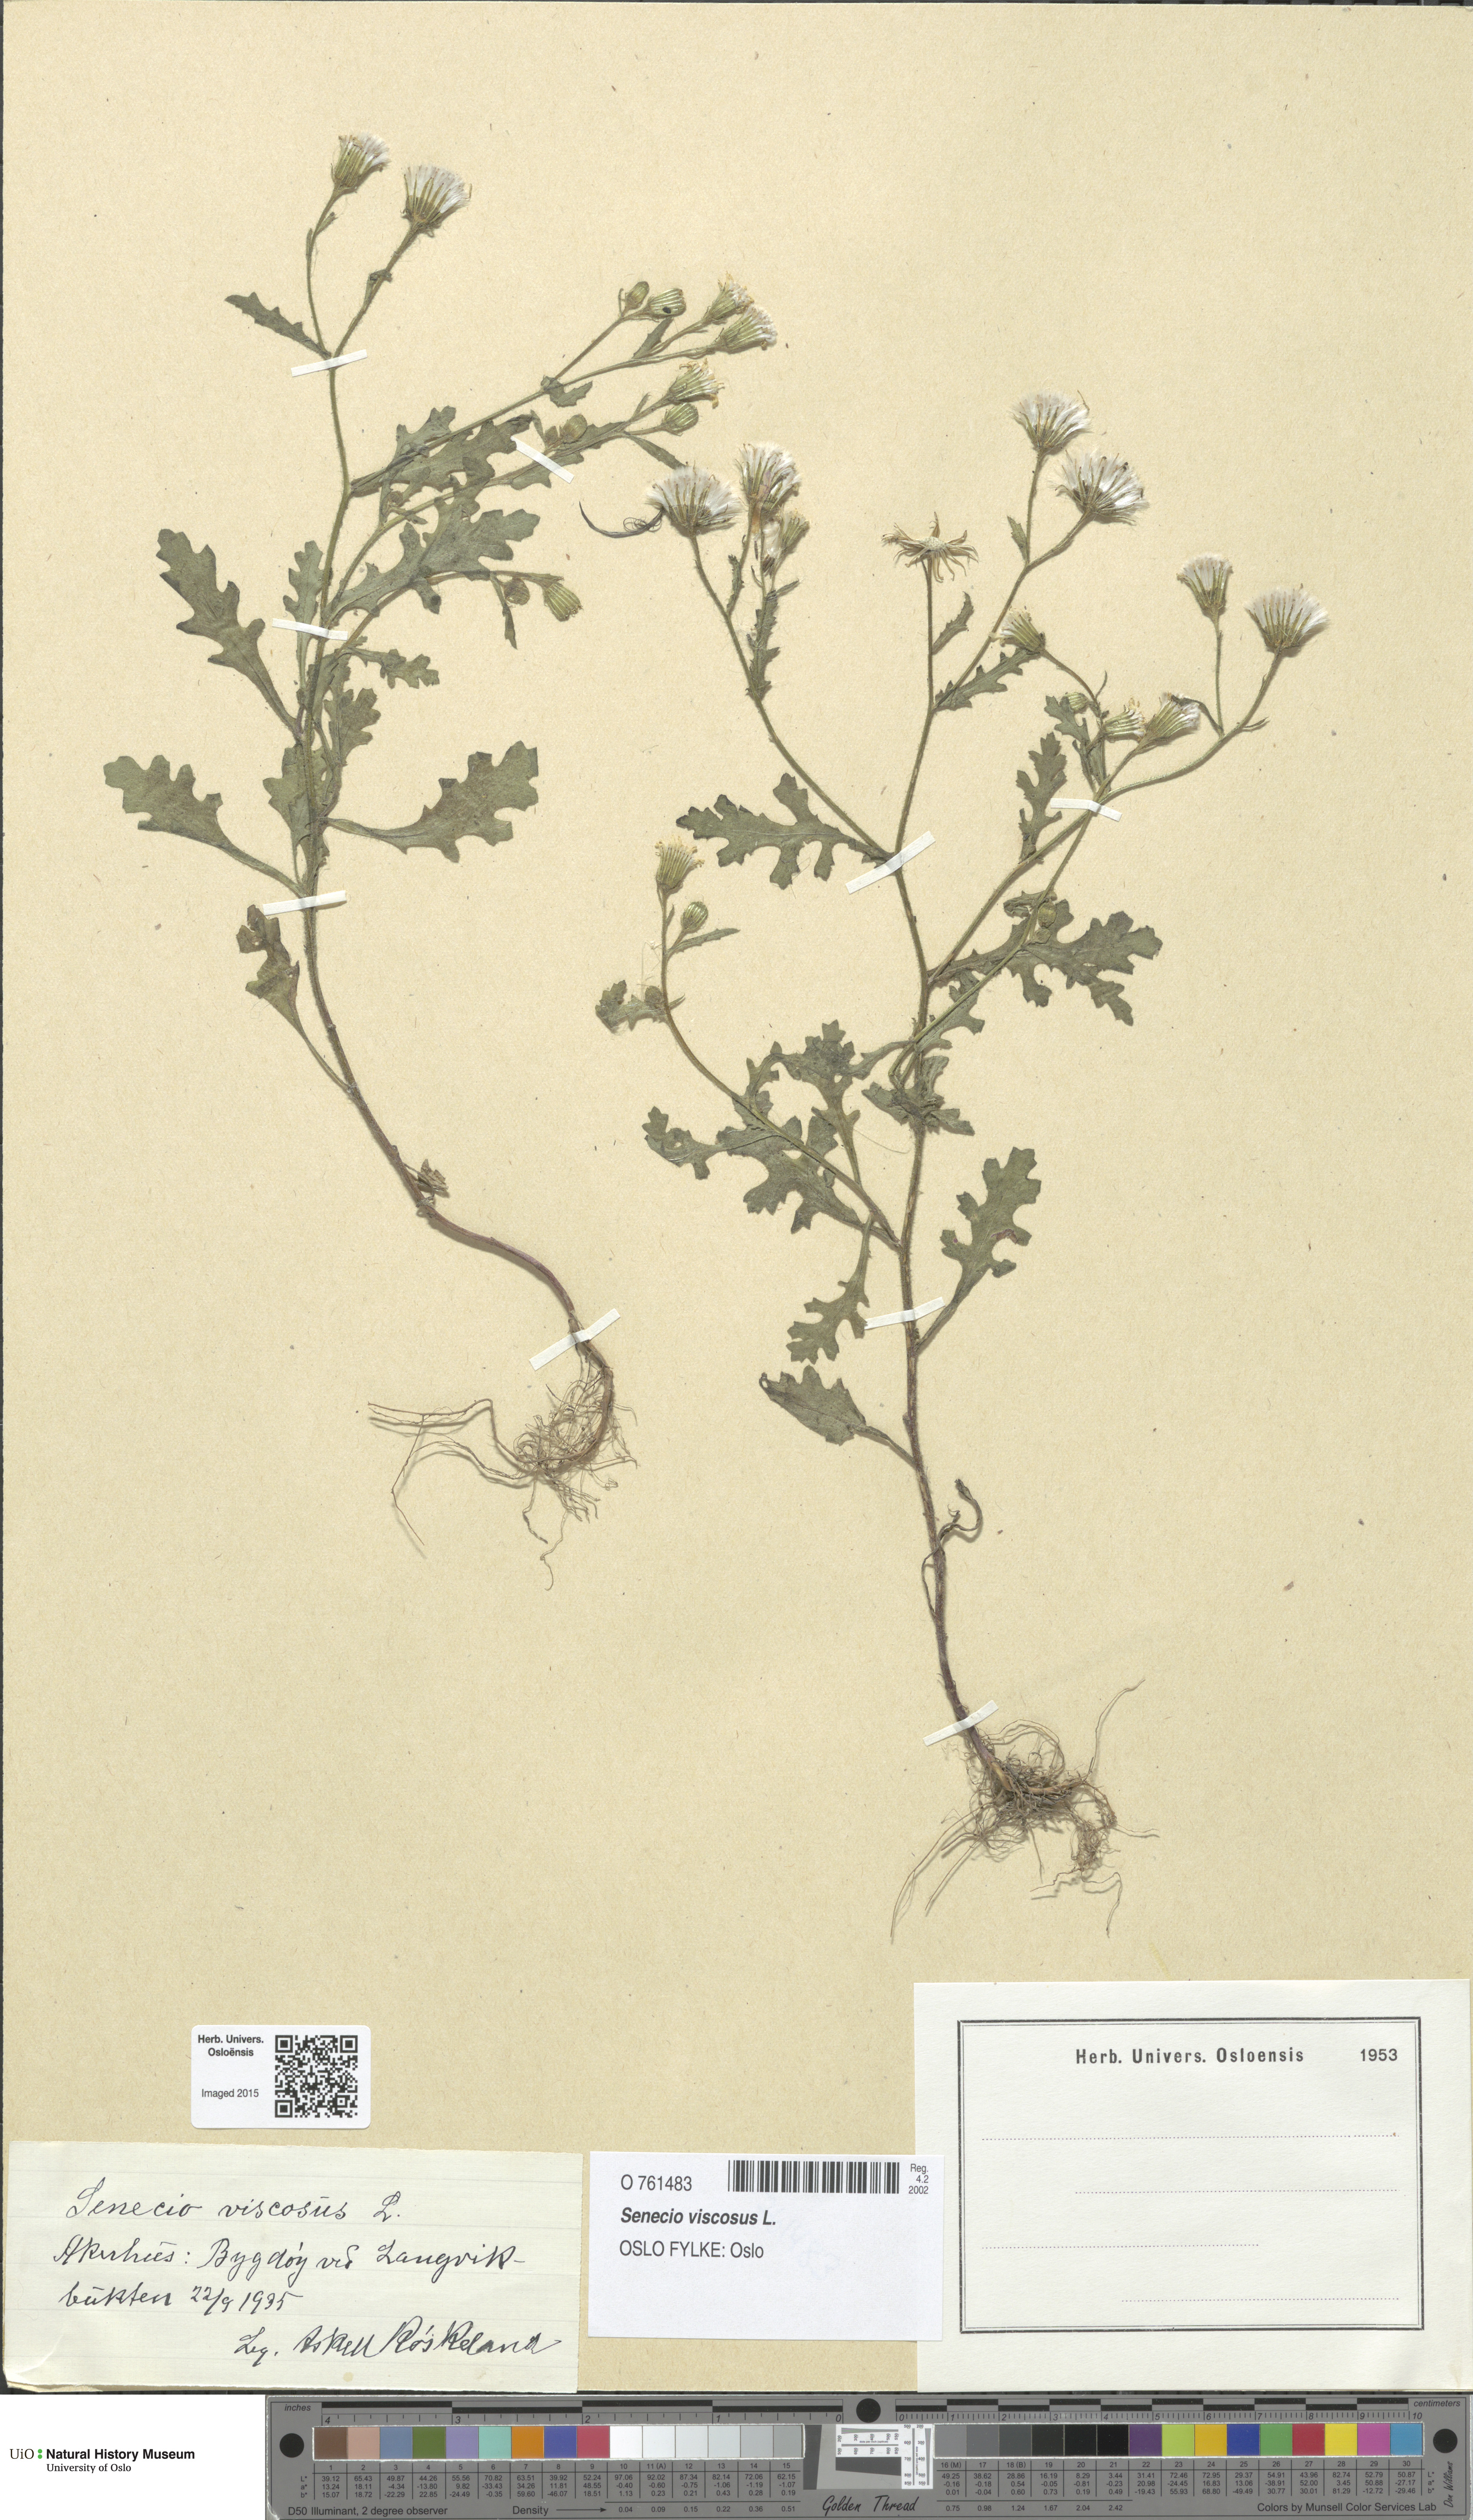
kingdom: Plantae
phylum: Tracheophyta
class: Magnoliopsida
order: Asterales
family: Asteraceae
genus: Senecio
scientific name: Senecio viscosus
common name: Sticky groundsel
